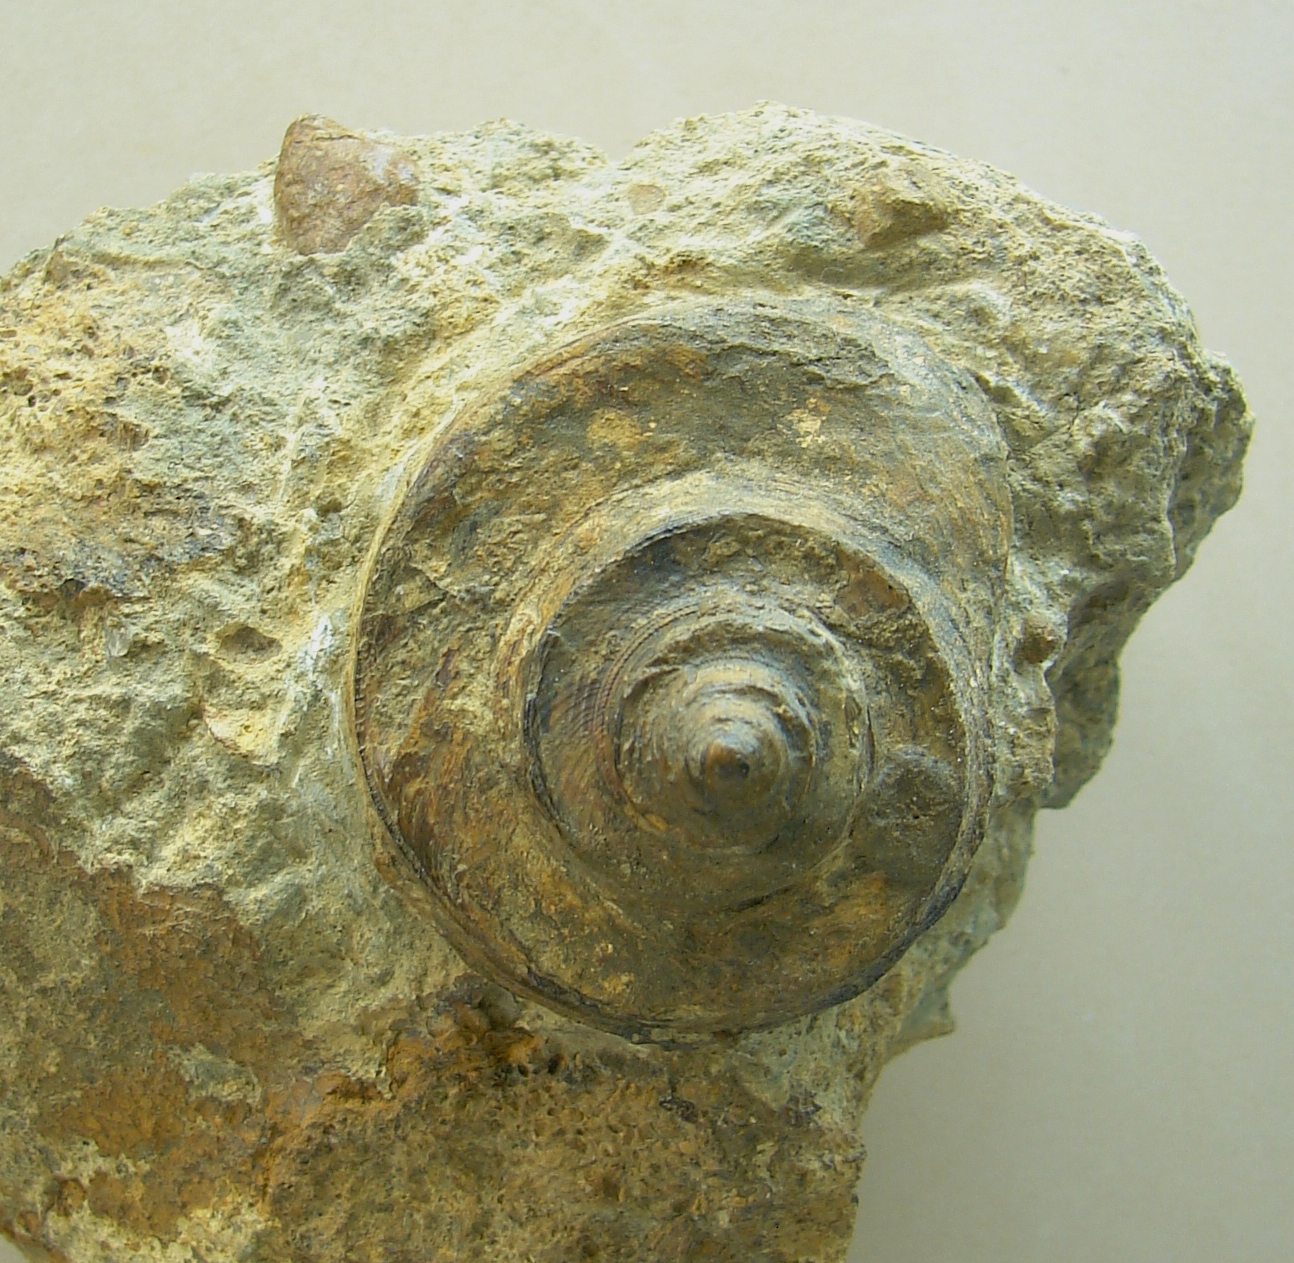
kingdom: Animalia
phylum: Mollusca
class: Gastropoda
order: Pleurotomariida
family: Trochotomidae
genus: Trochotoma
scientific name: Trochotoma affinis
